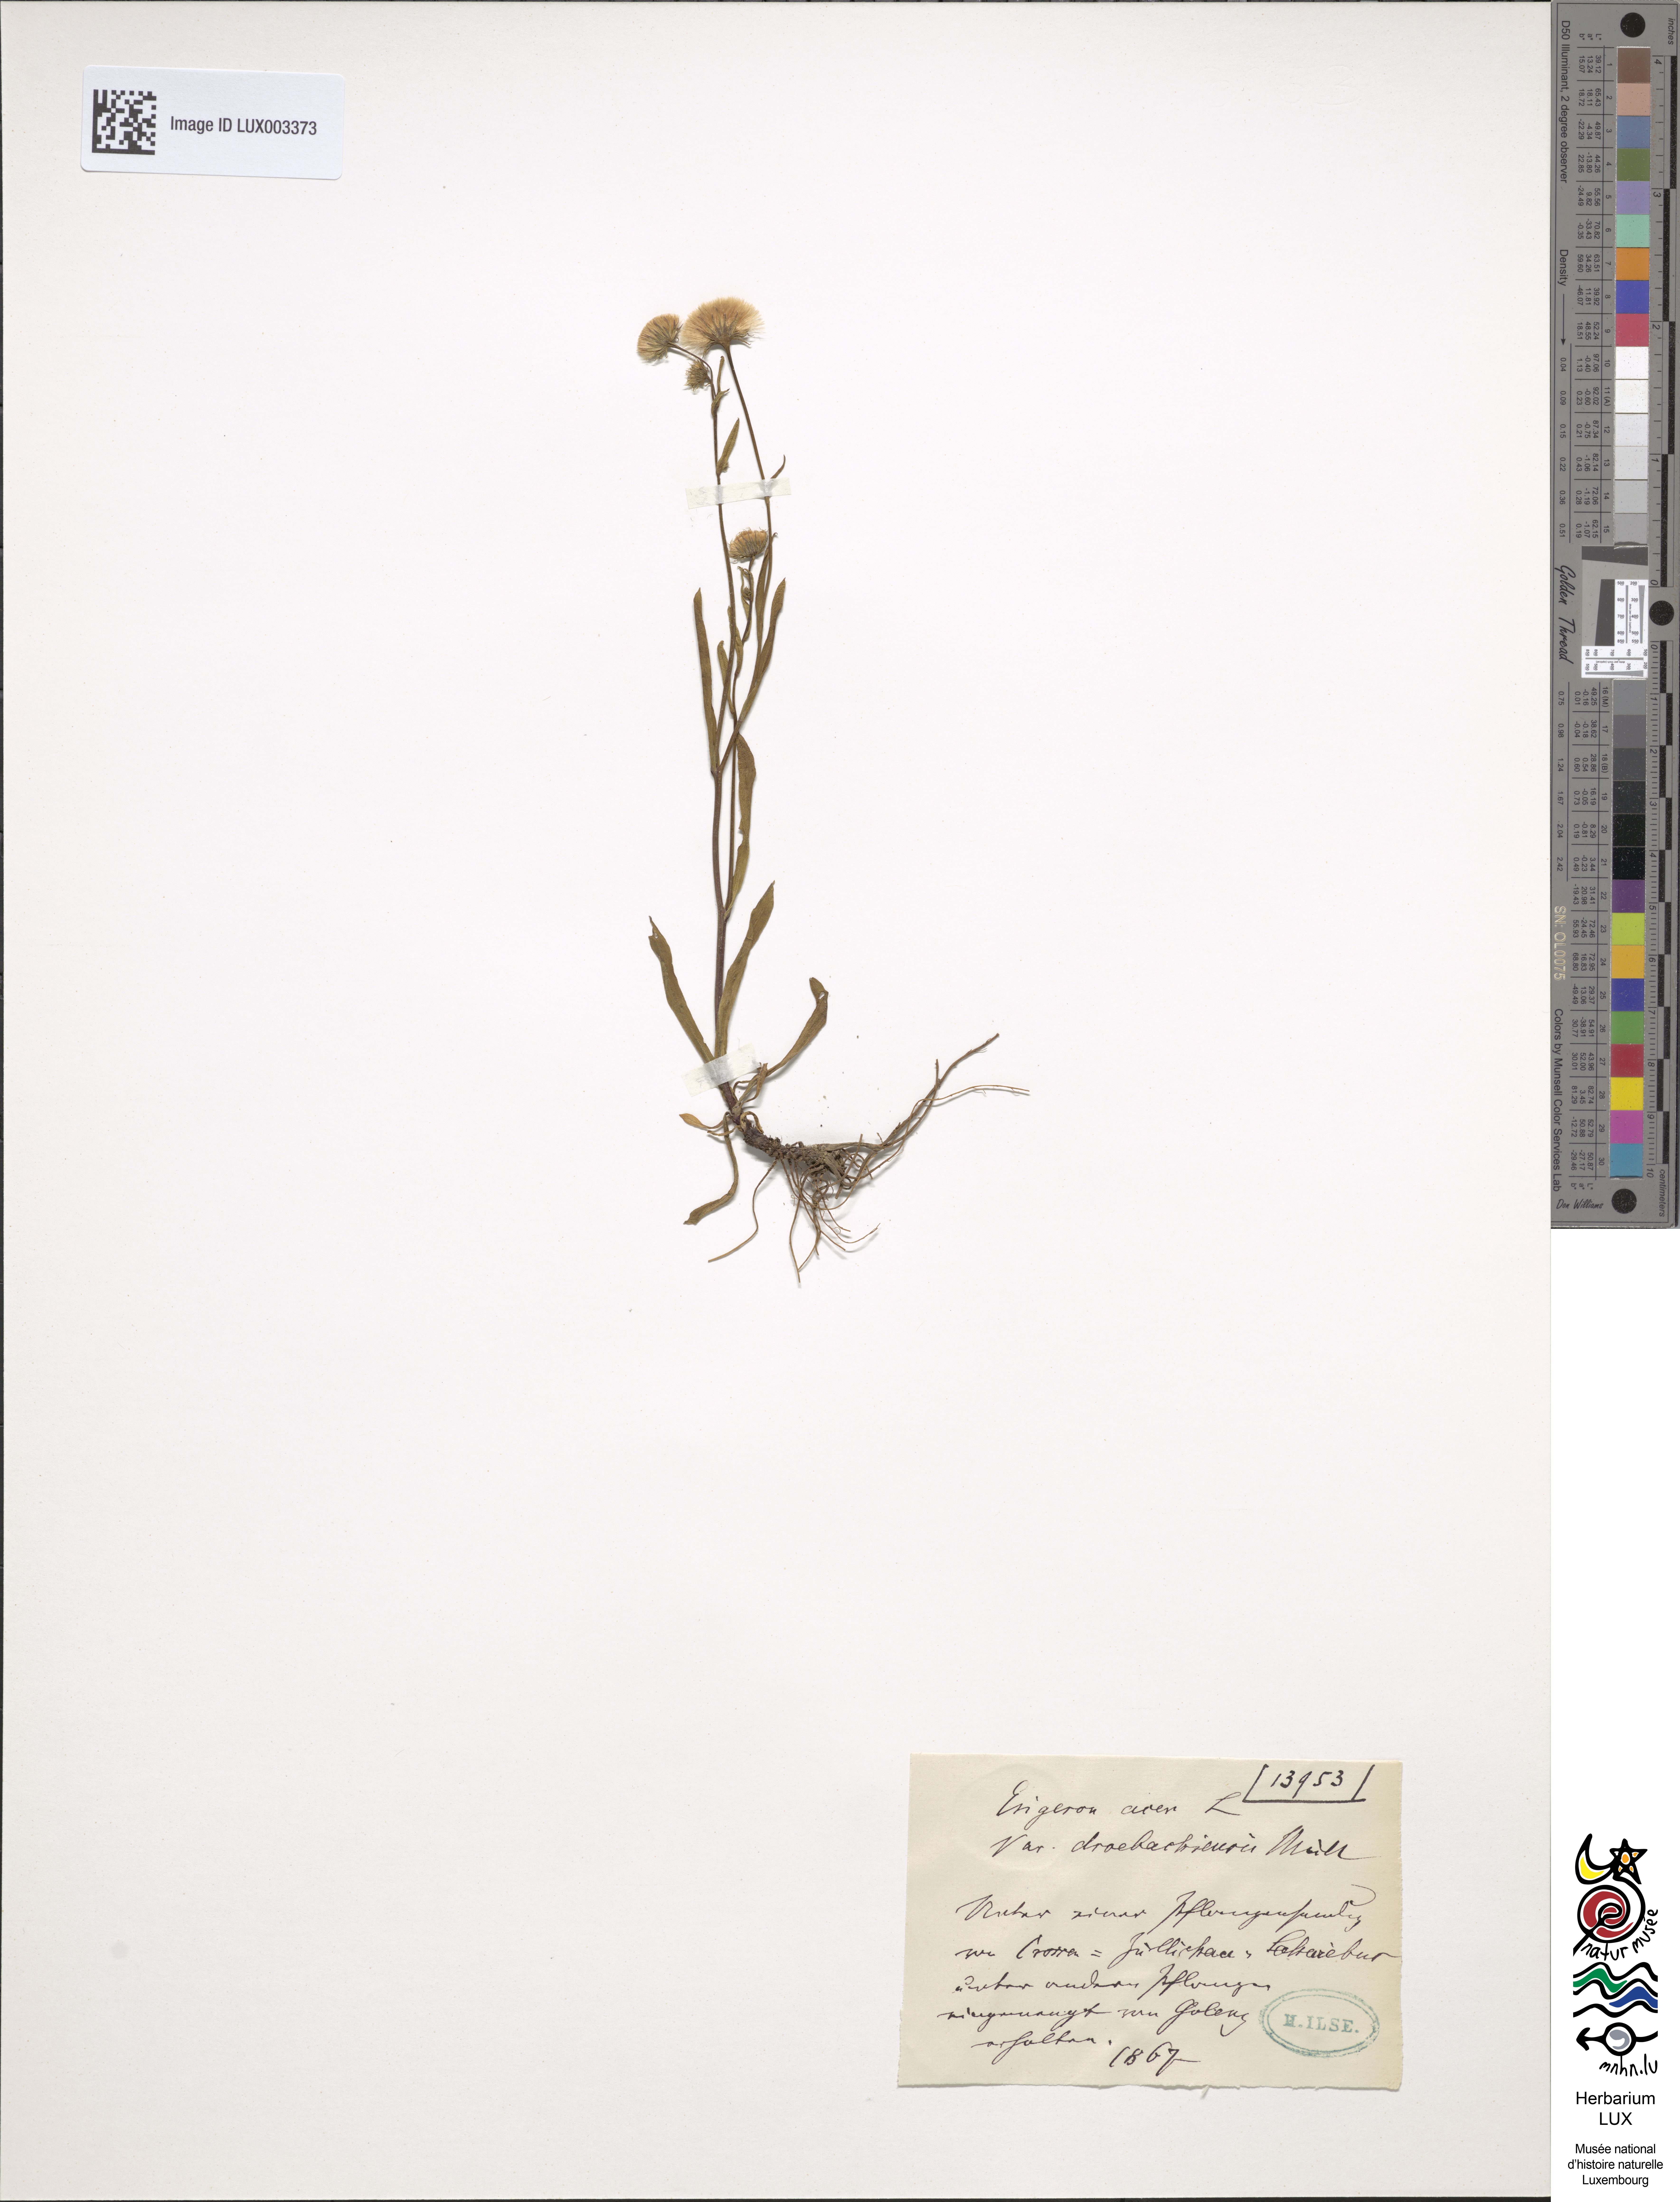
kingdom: Plantae
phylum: Tracheophyta
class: Magnoliopsida
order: Asterales
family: Asteraceae
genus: Erigeron
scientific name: Erigeron droebachiensis
